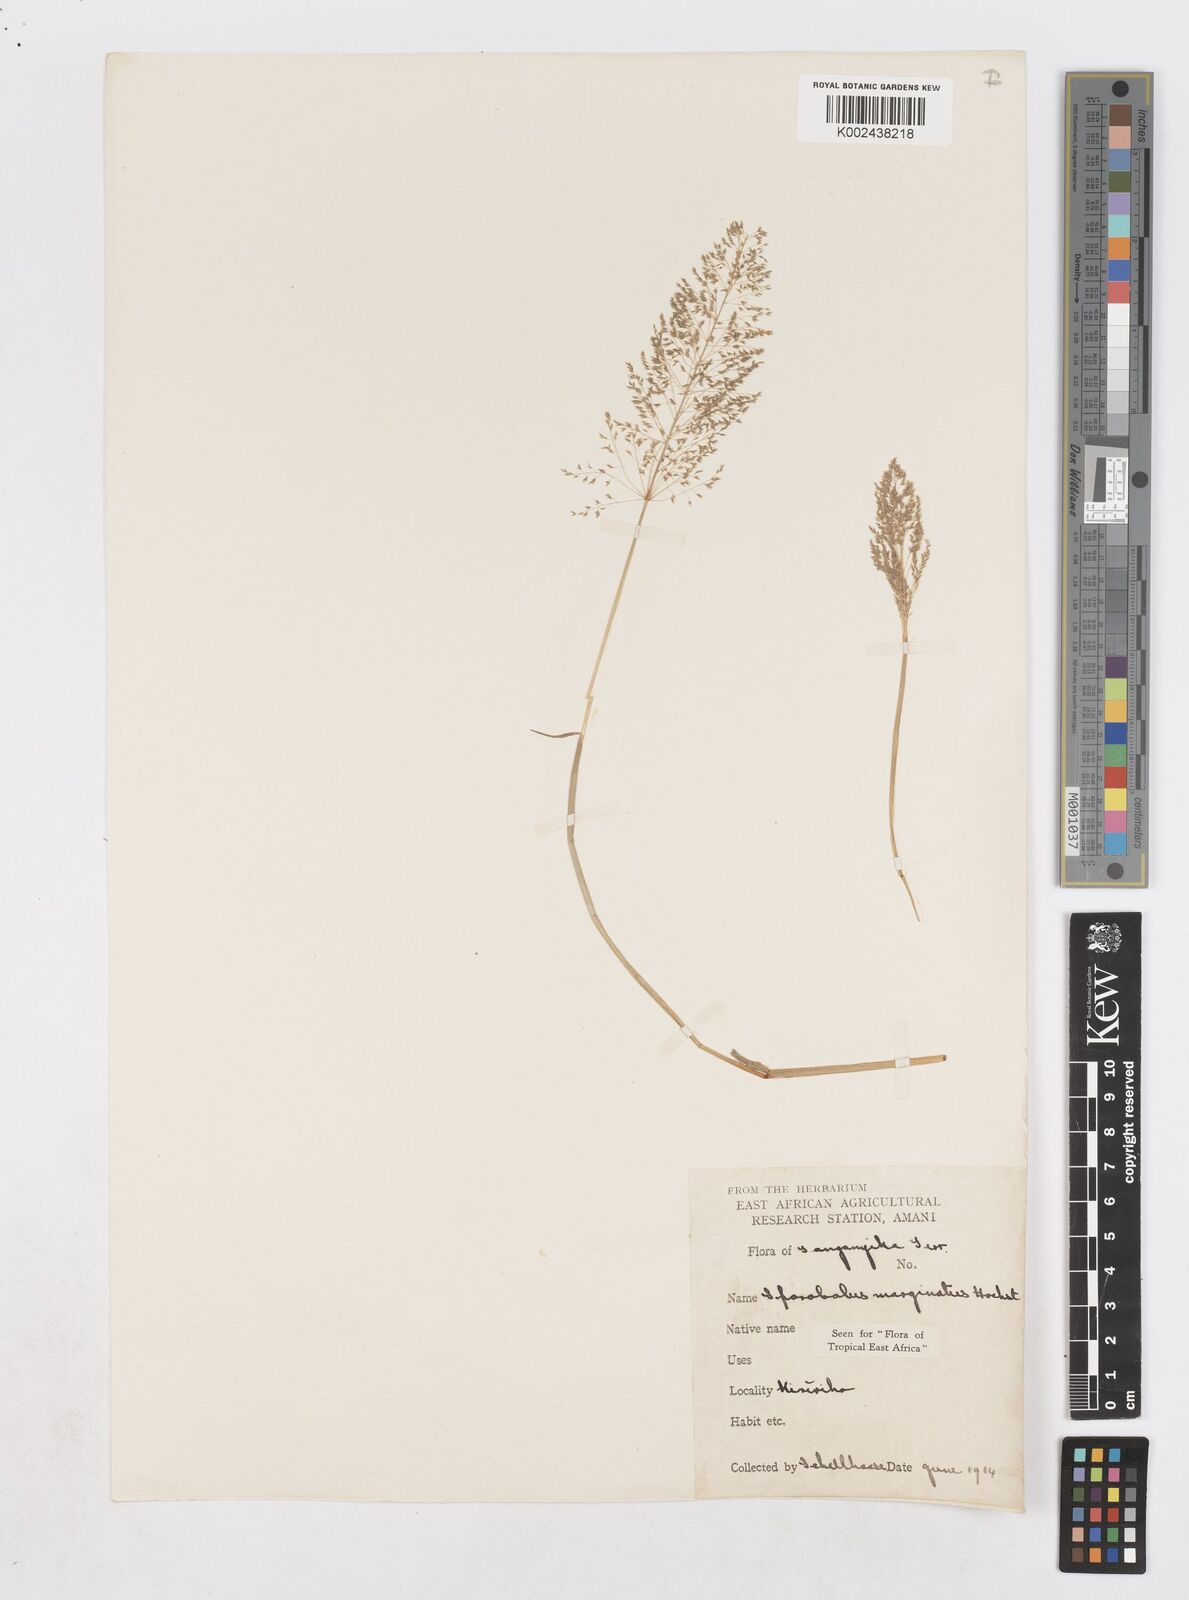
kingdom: Plantae
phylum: Tracheophyta
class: Liliopsida
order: Poales
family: Poaceae
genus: Sporobolus
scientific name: Sporobolus ioclados
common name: Pan dropseed
